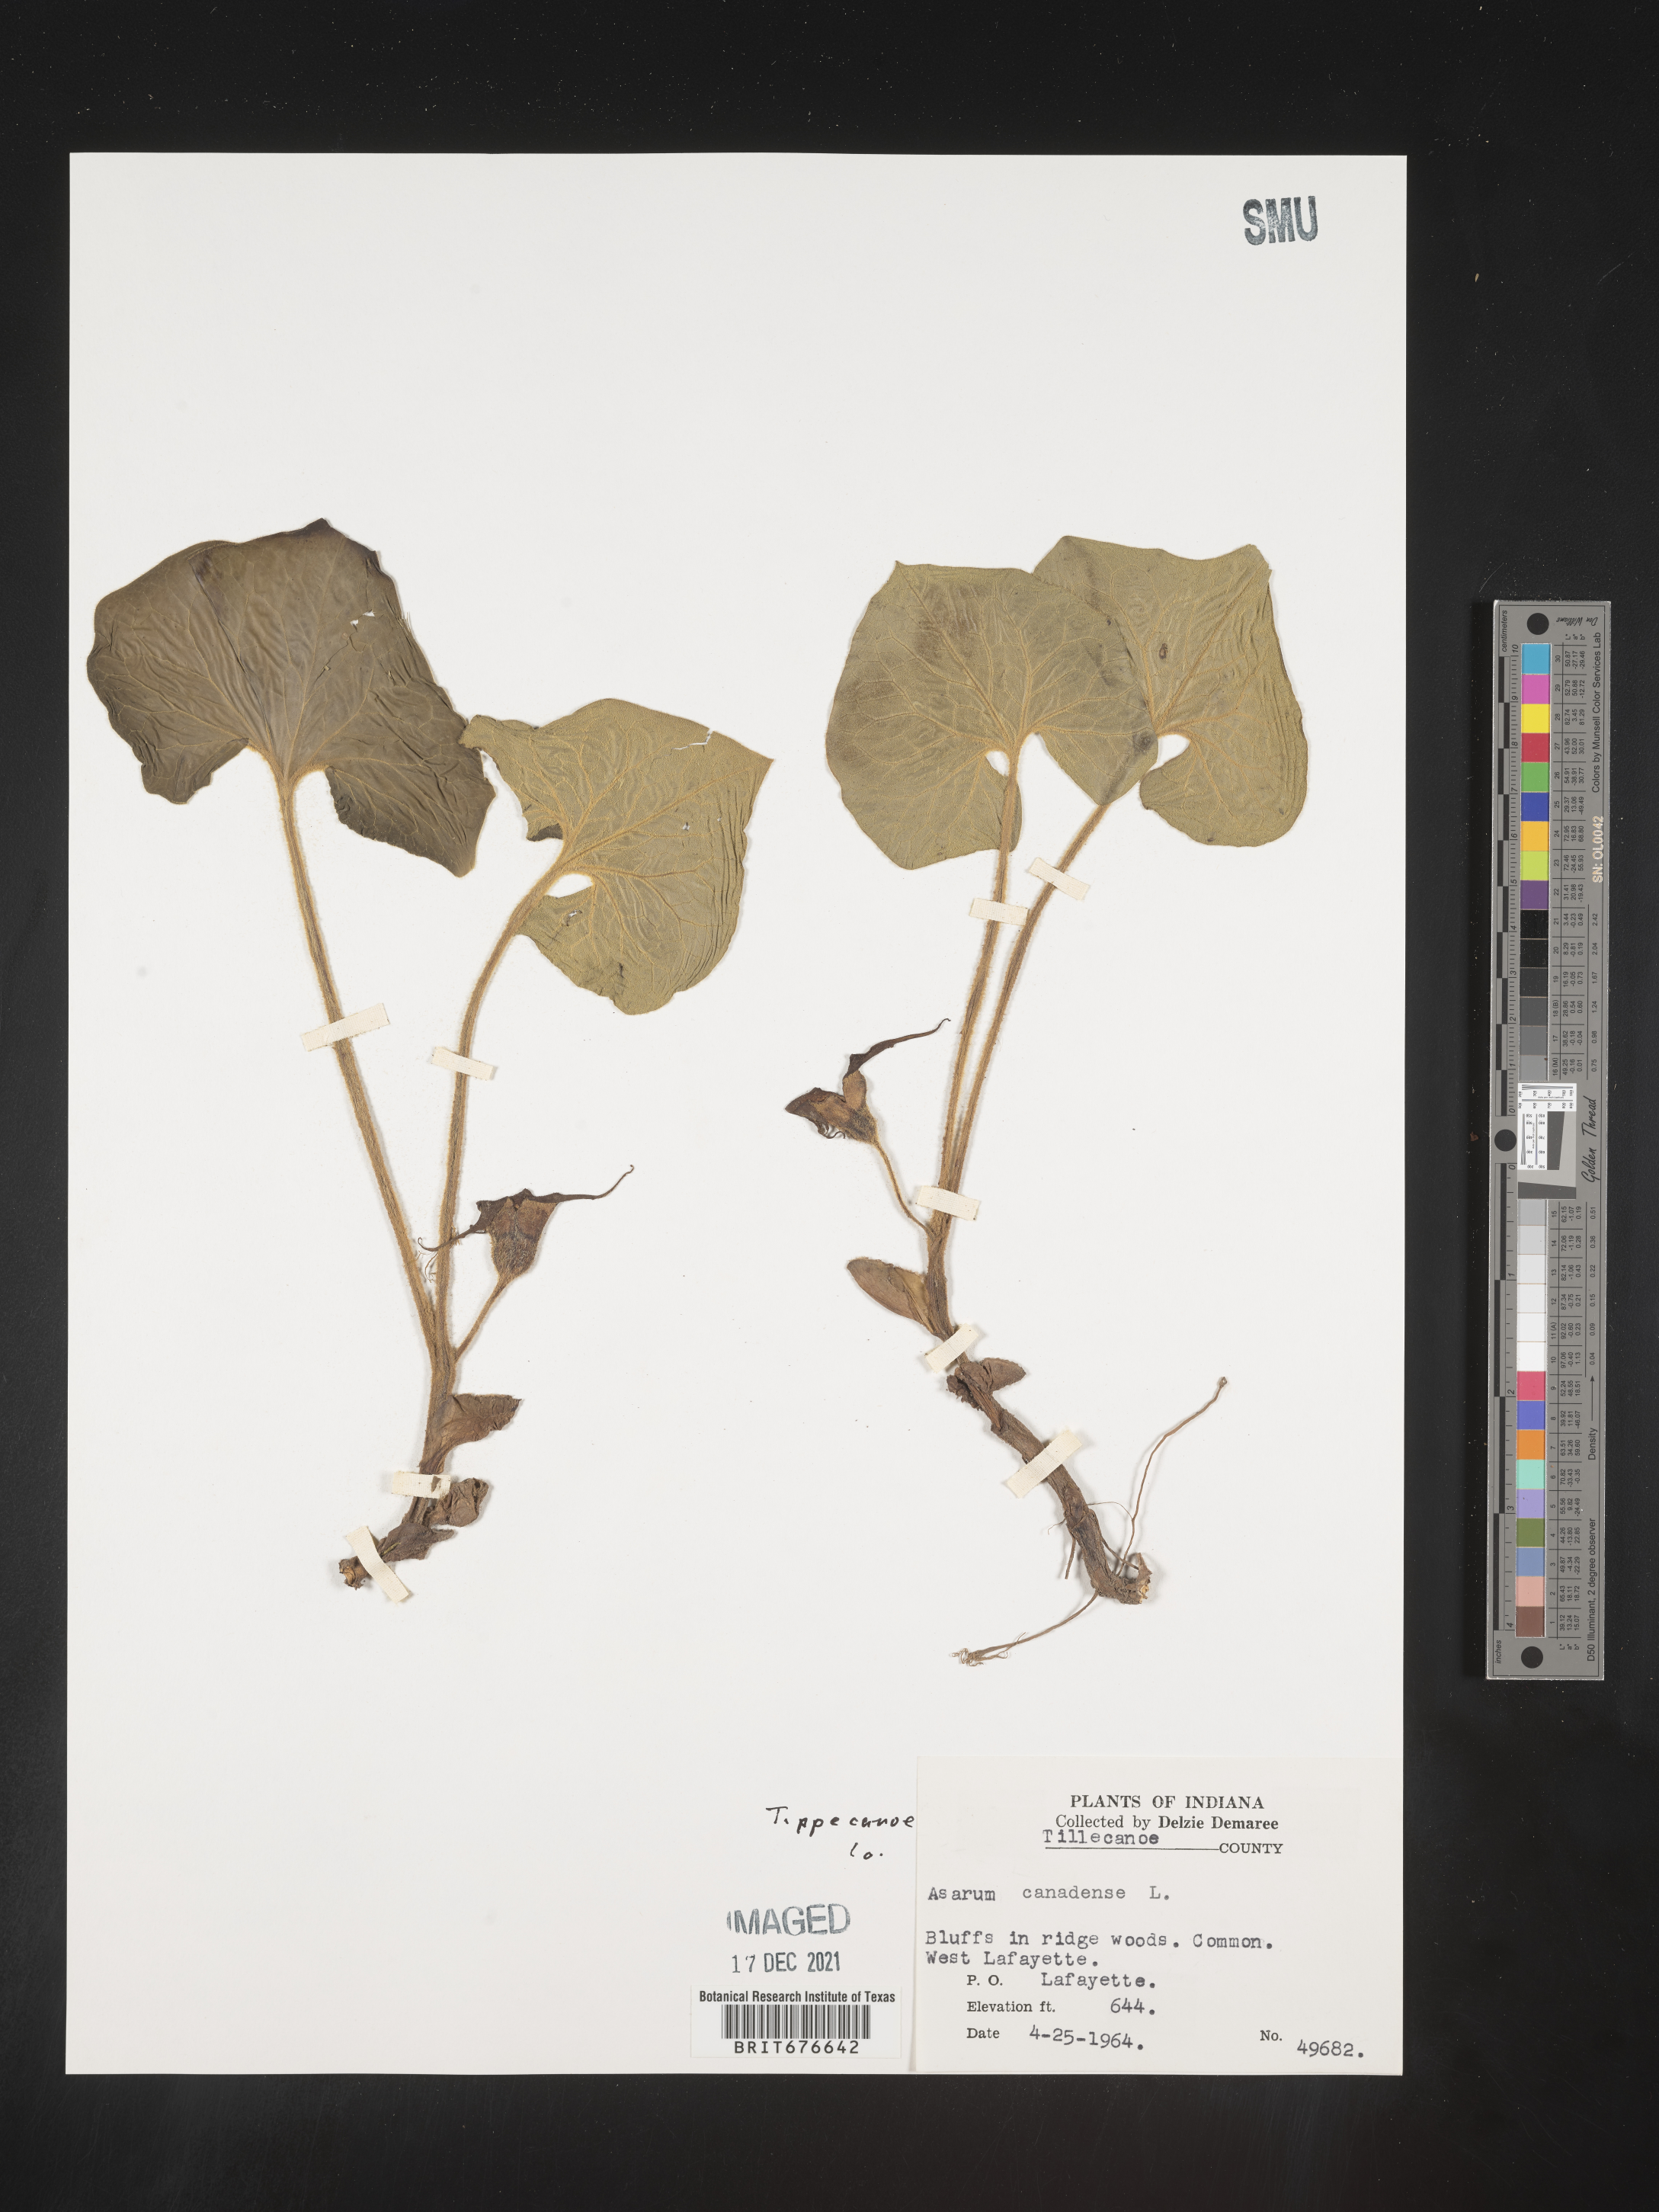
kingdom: Plantae
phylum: Tracheophyta
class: Magnoliopsida
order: Piperales
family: Aristolochiaceae
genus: Asarum
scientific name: Asarum canadense
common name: Wild ginger
